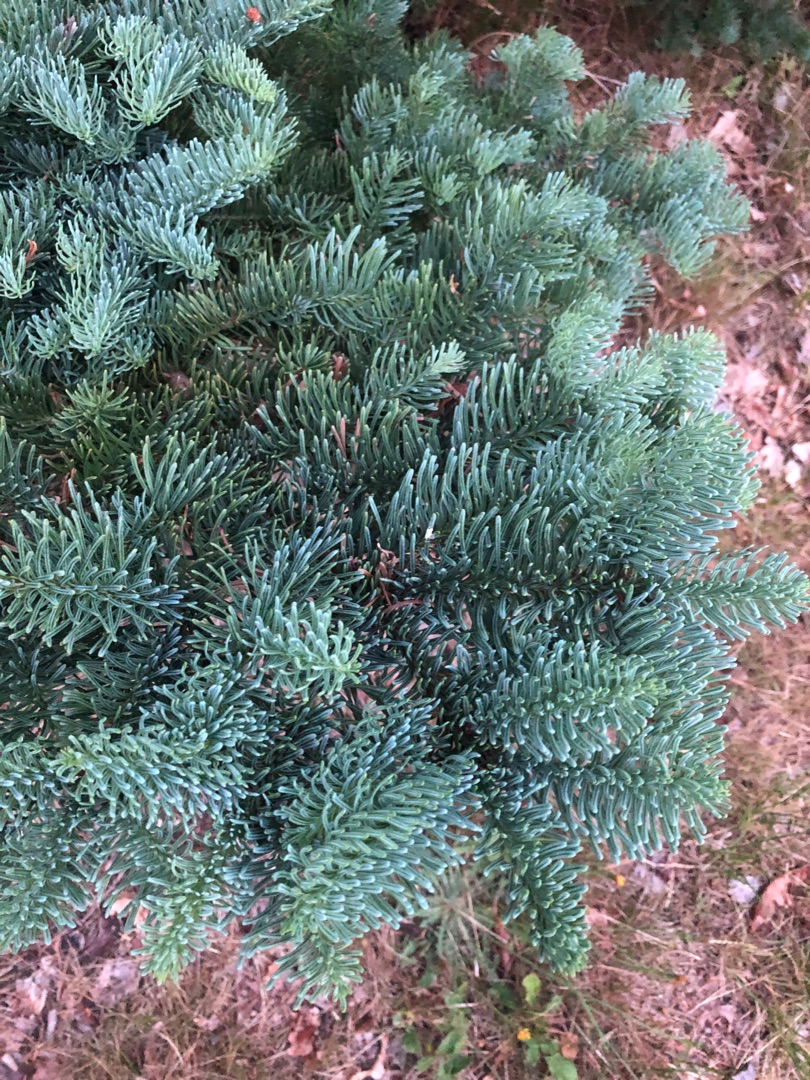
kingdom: Plantae
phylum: Tracheophyta
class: Pinopsida
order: Pinales
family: Pinaceae
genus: Abies
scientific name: Abies procera
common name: Sølvgran
